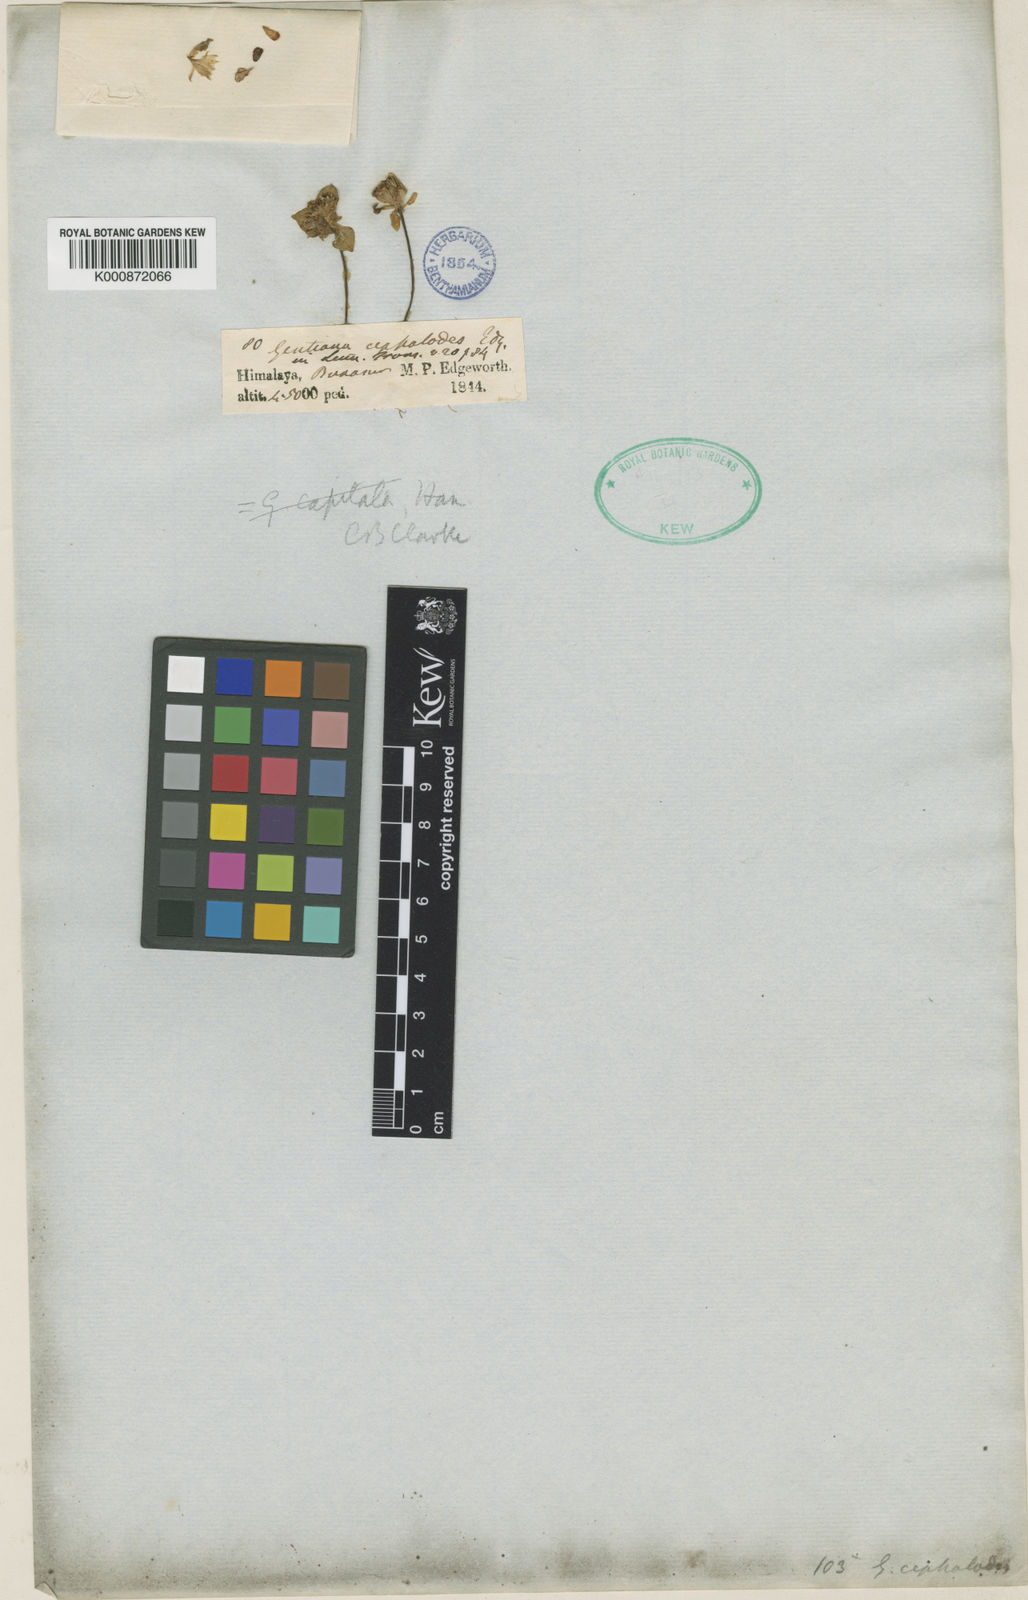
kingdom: Plantae
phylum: Tracheophyta
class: Magnoliopsida
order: Gentianales
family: Gentianaceae
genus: Gentiana
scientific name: Gentiana capitata
